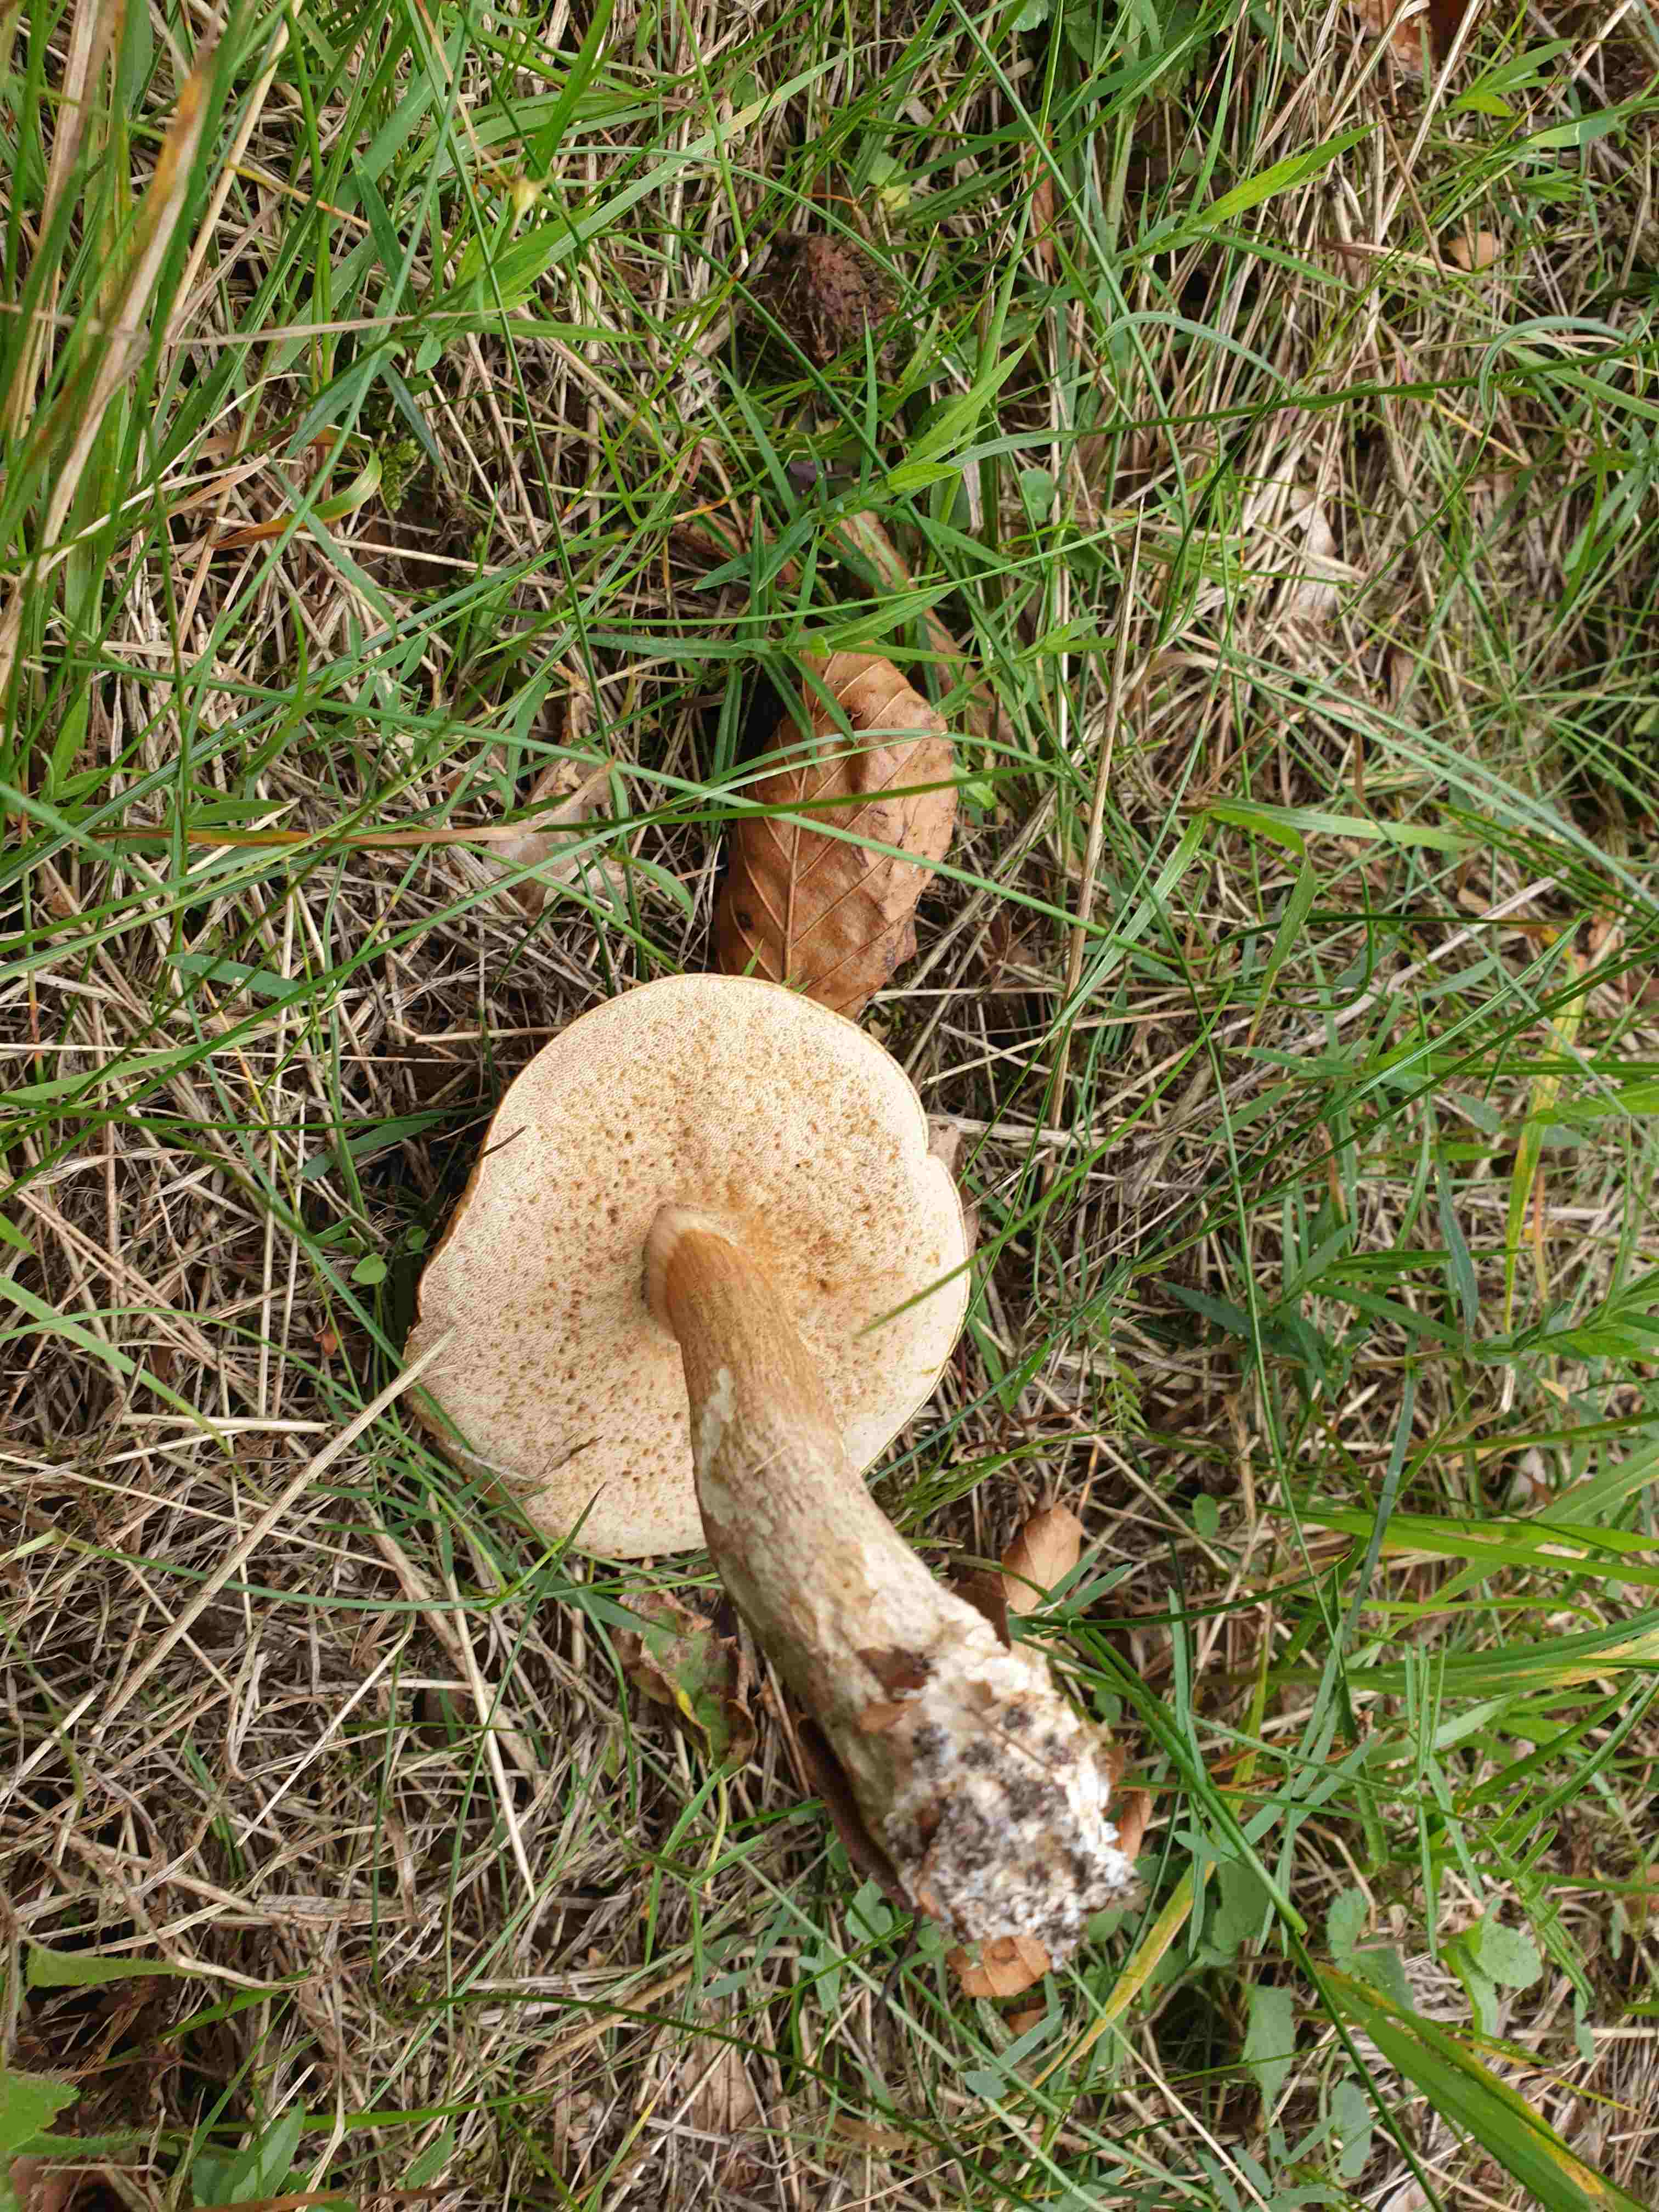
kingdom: Fungi
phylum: Basidiomycota
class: Agaricomycetes
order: Boletales
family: Boletaceae
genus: Tylopilus
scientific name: Tylopilus felleus
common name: galderørhat
